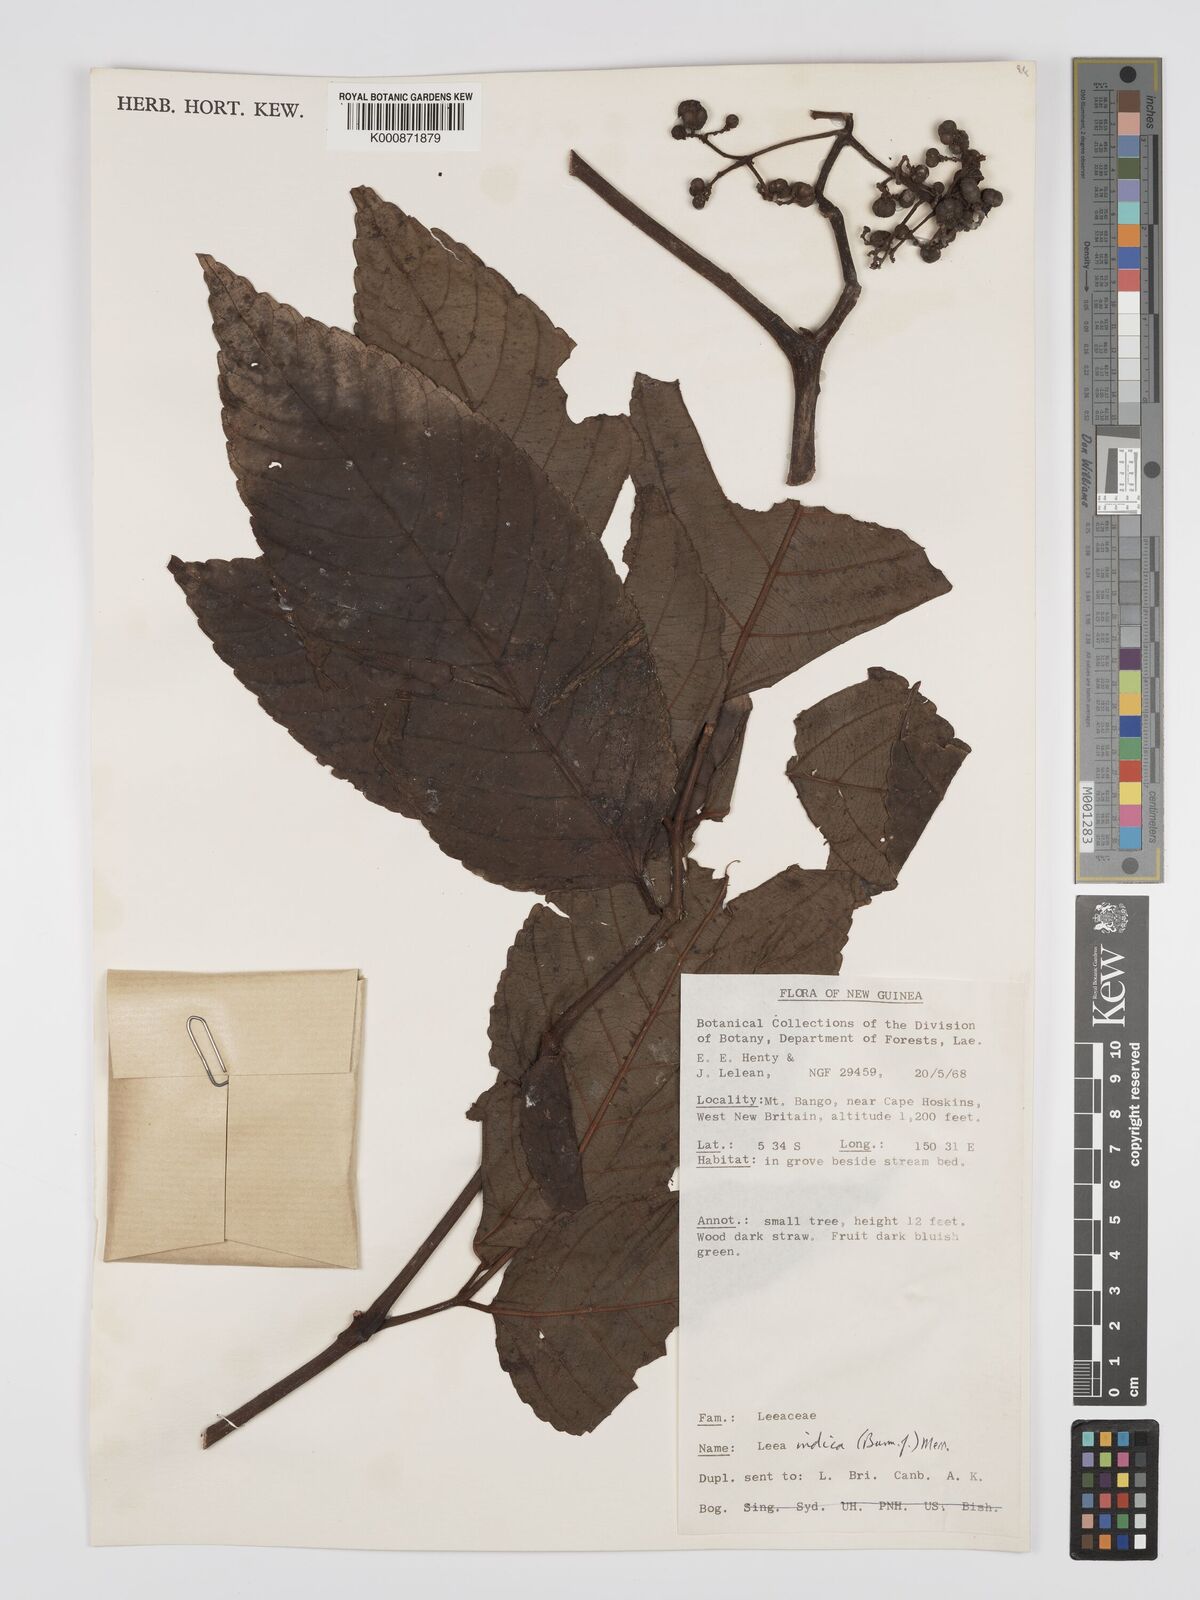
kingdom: Plantae
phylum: Tracheophyta
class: Magnoliopsida
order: Vitales
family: Vitaceae
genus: Leea
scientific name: Leea indica
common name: Bandicoot-berry
